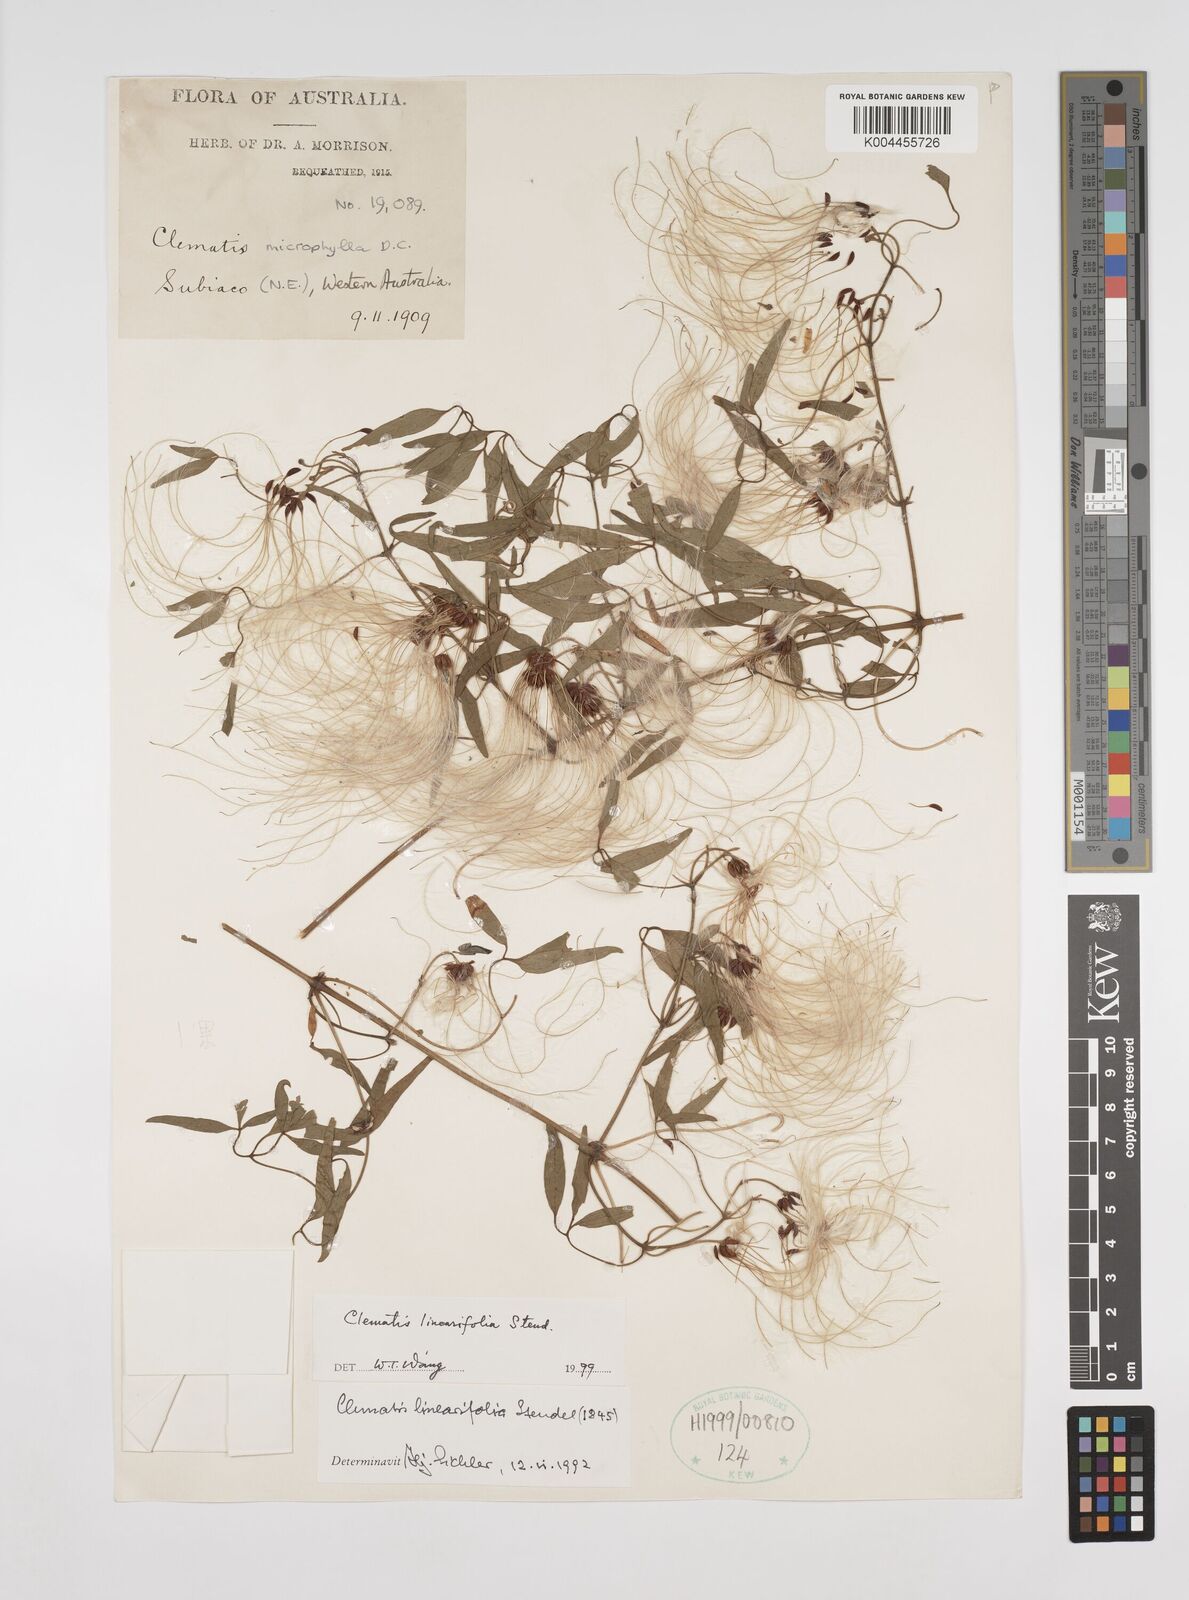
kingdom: Plantae
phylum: Tracheophyta
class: Magnoliopsida
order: Ranunculales
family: Ranunculaceae
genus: Clematis
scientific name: Clematis linearifolia
